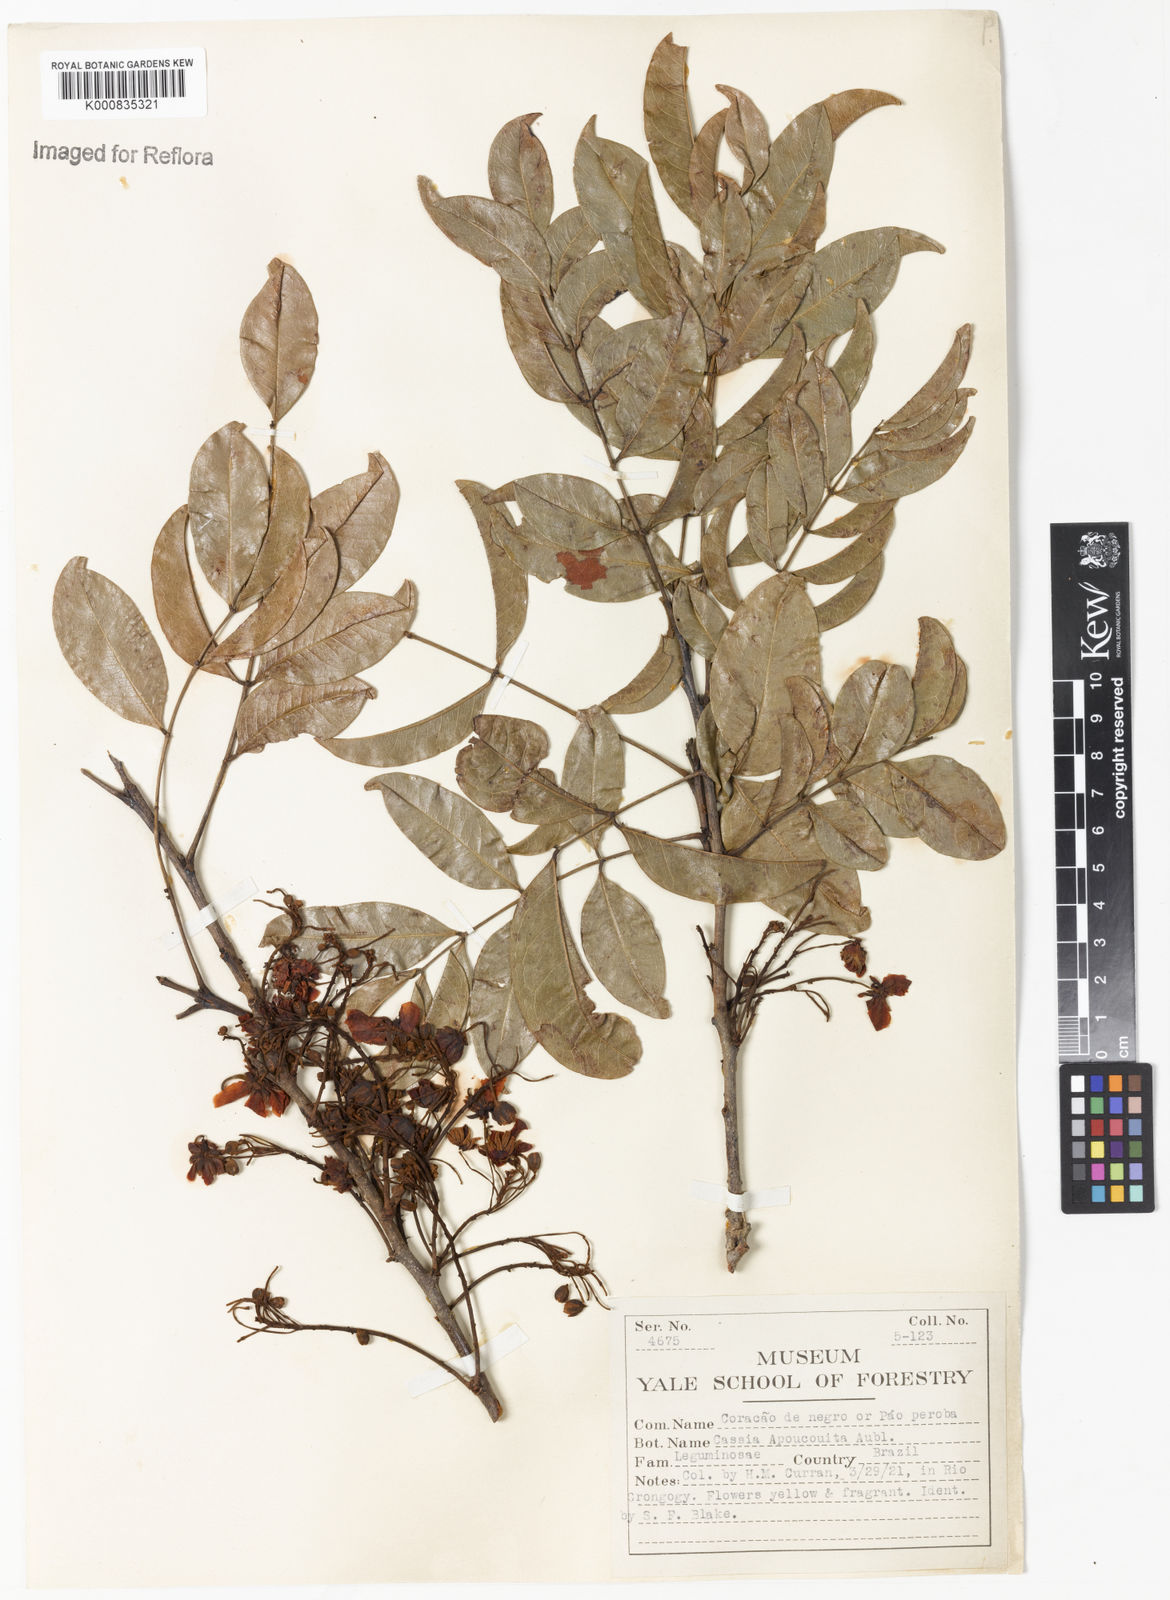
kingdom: Plantae
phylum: Tracheophyta
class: Magnoliopsida
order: Fabales
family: Fabaceae
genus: Chamaecrista
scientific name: Chamaecrista apoucouita
